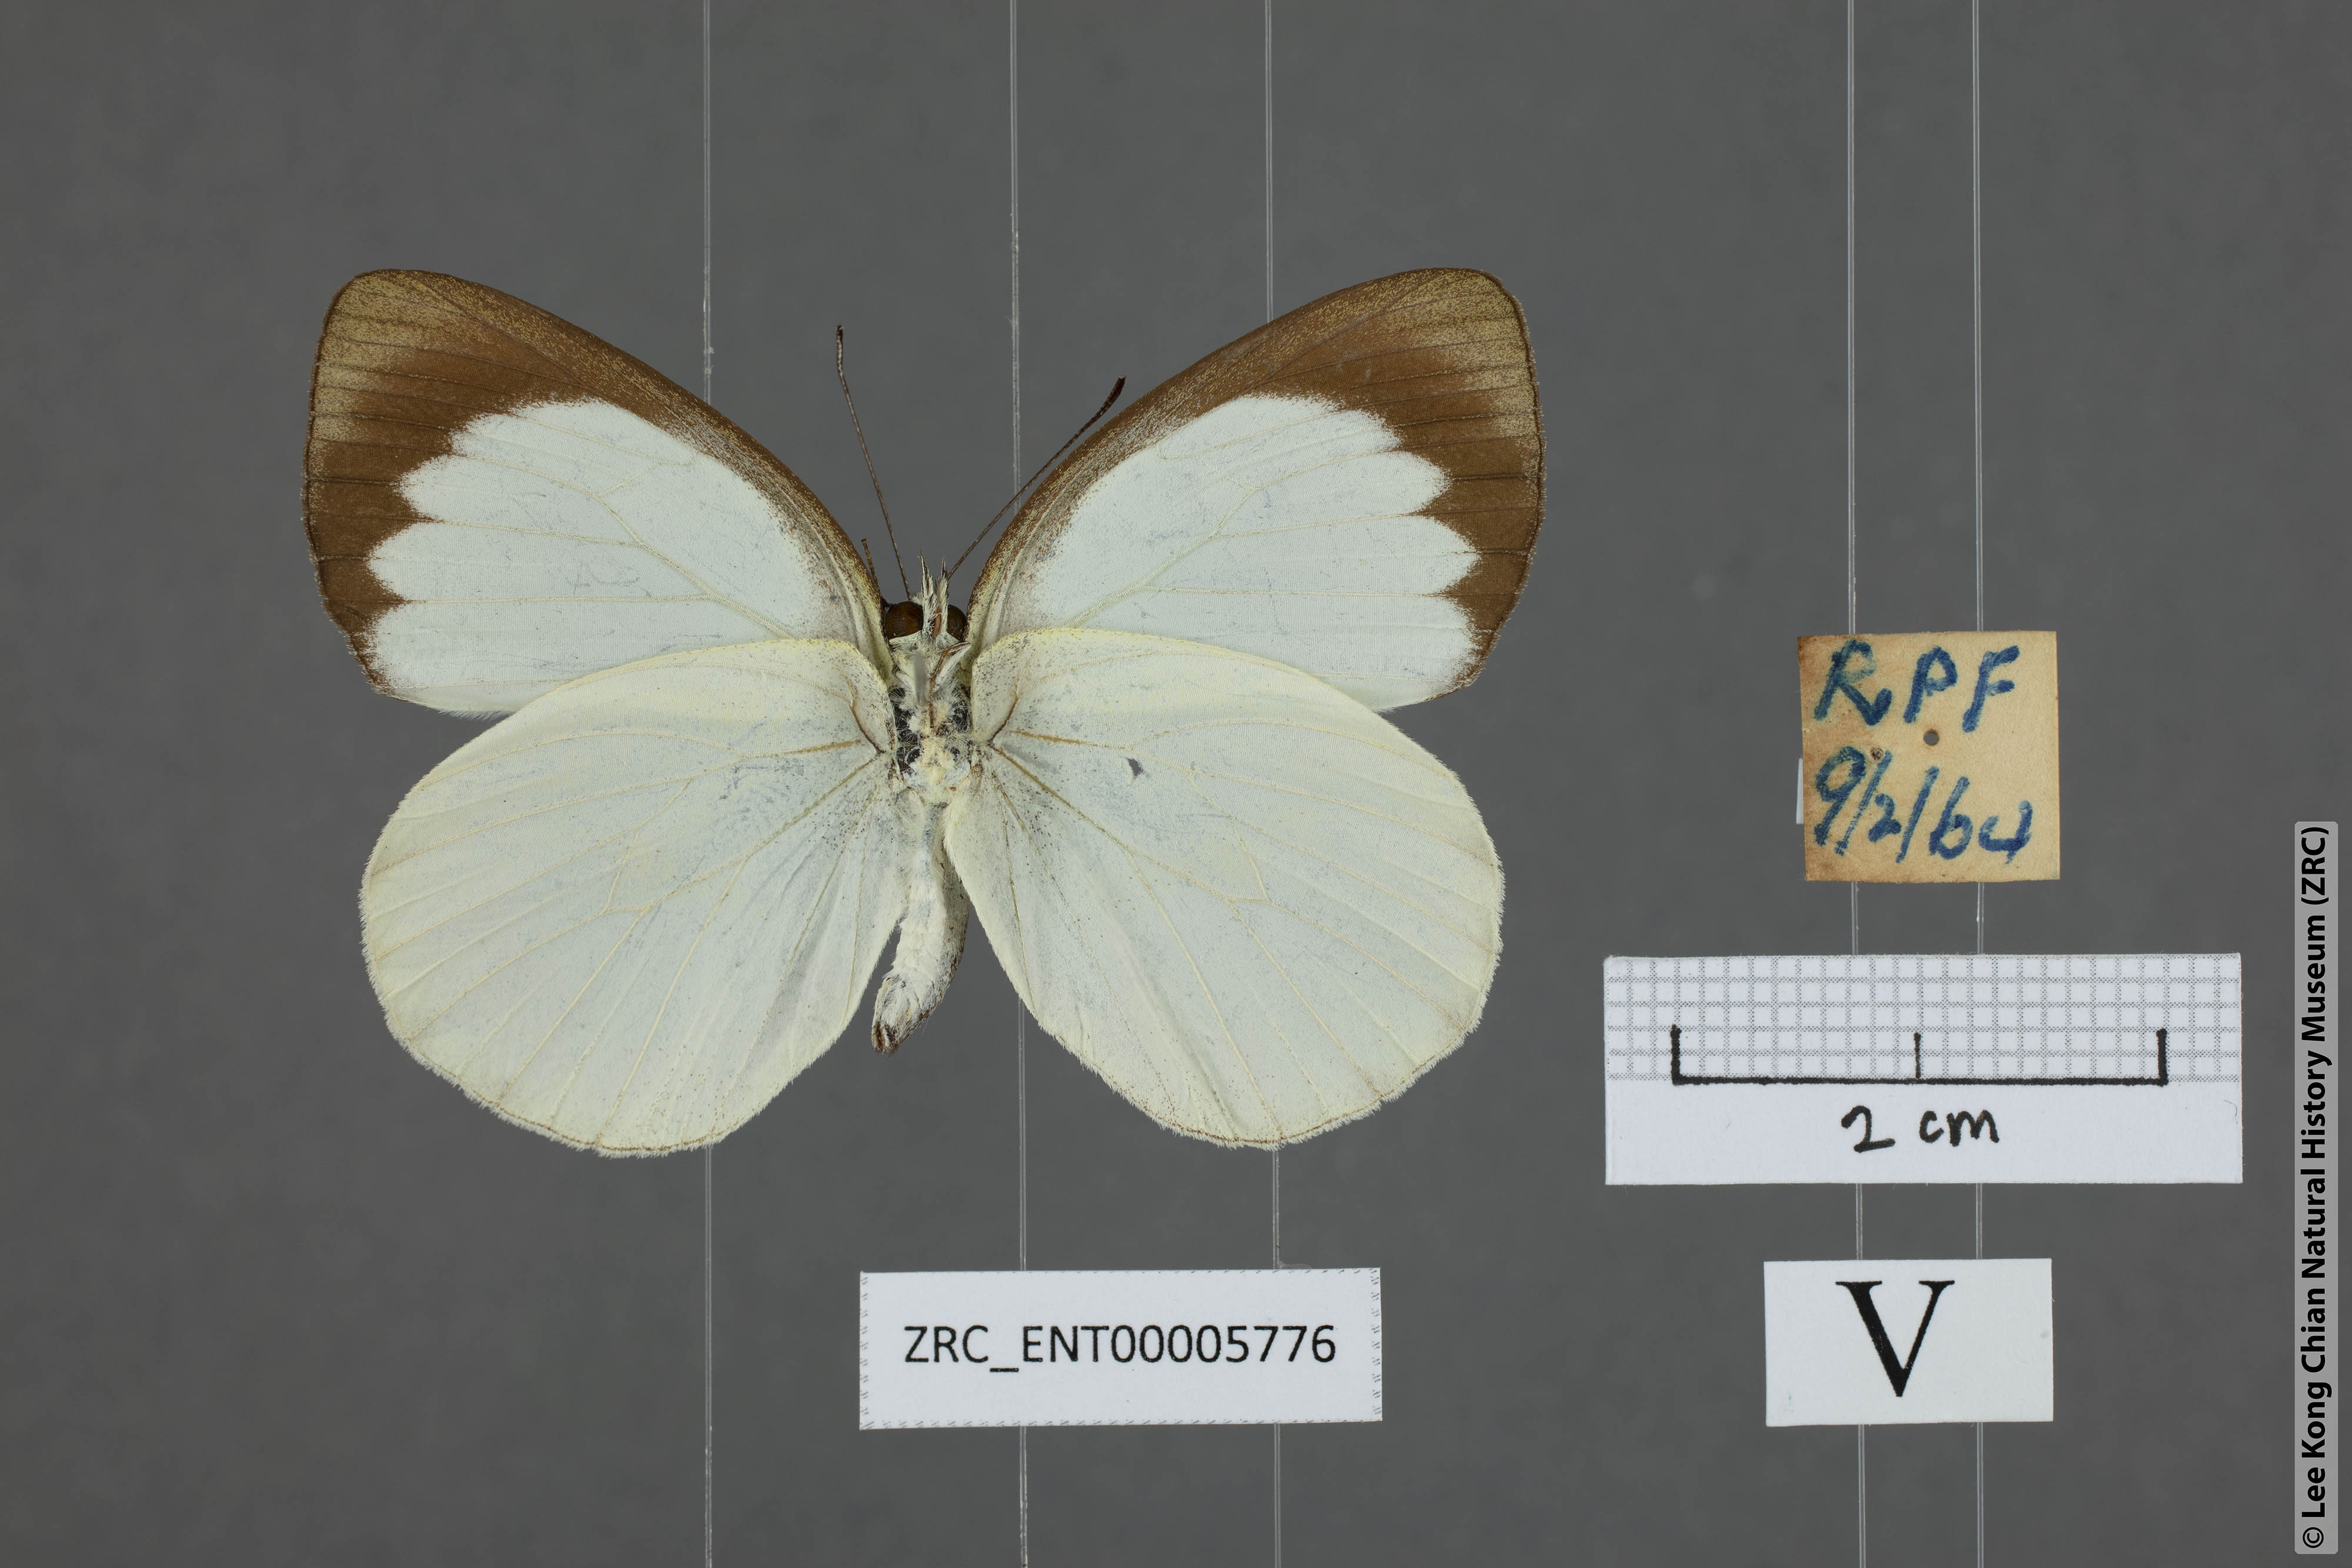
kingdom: Animalia
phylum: Arthropoda
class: Insecta
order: Lepidoptera
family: Pieridae
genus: Phrissura
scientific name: Phrissura aegis
